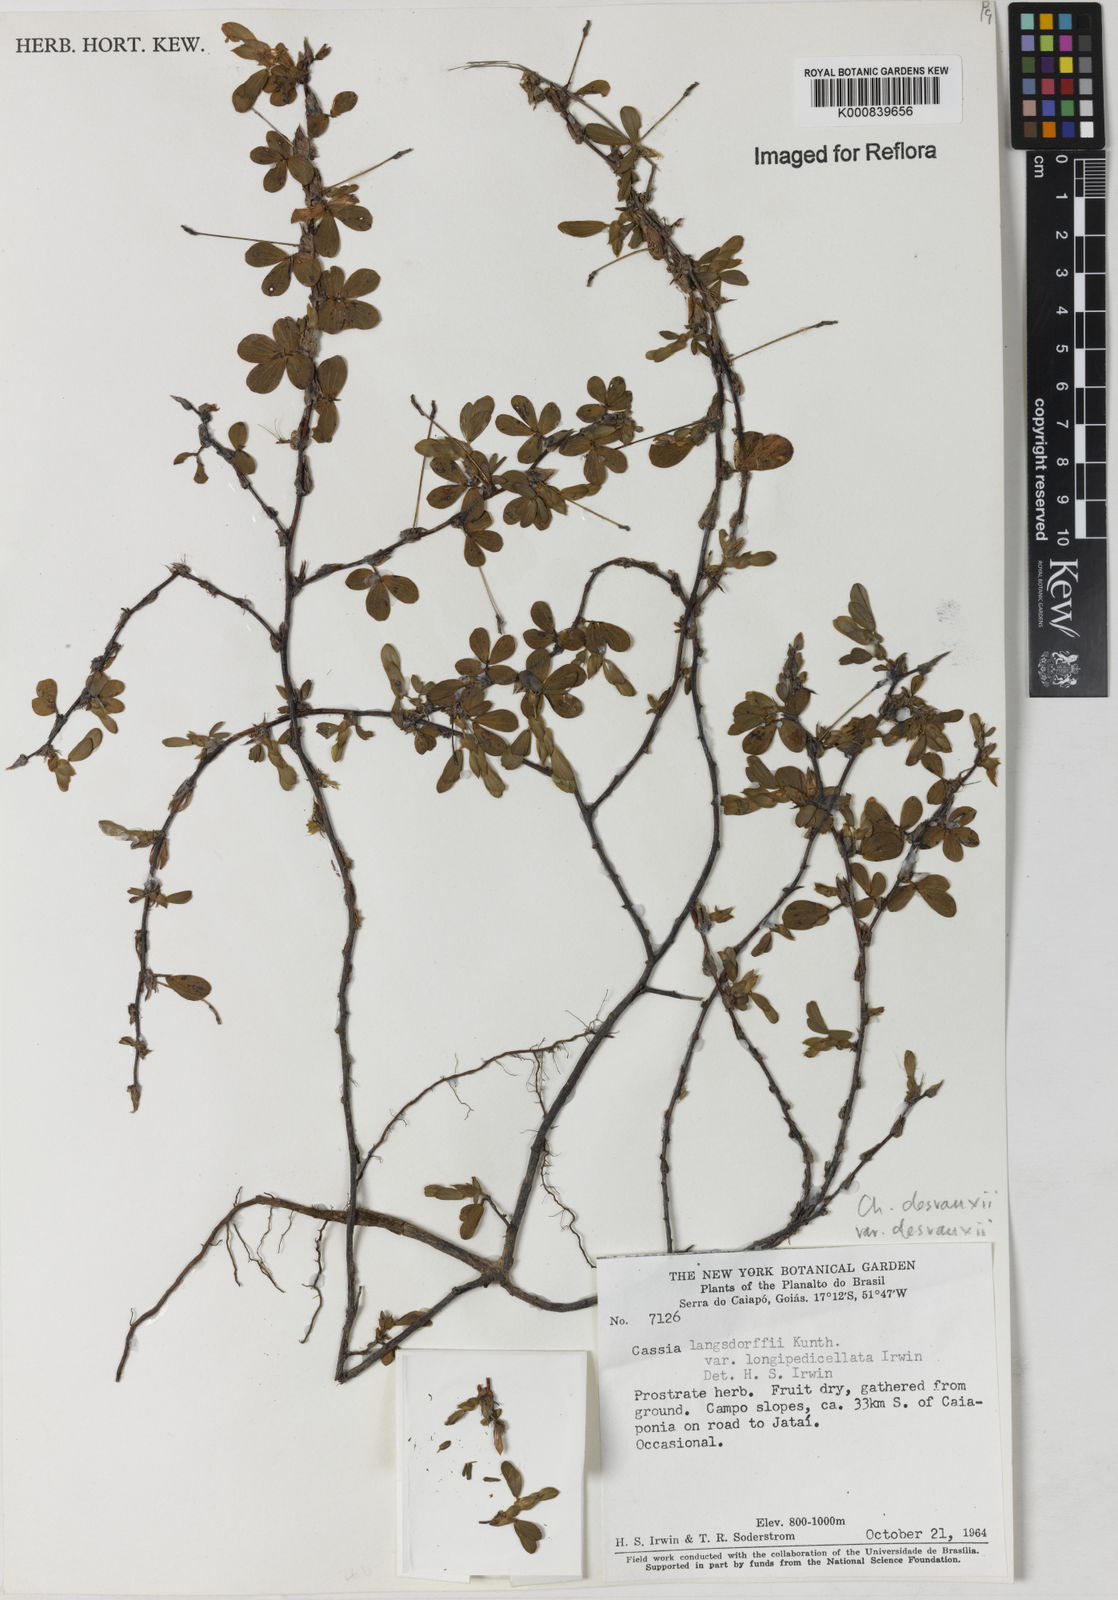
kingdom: Plantae
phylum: Tracheophyta
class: Magnoliopsida
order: Fabales
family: Fabaceae
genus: Chamaecrista
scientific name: Chamaecrista desvauxii
